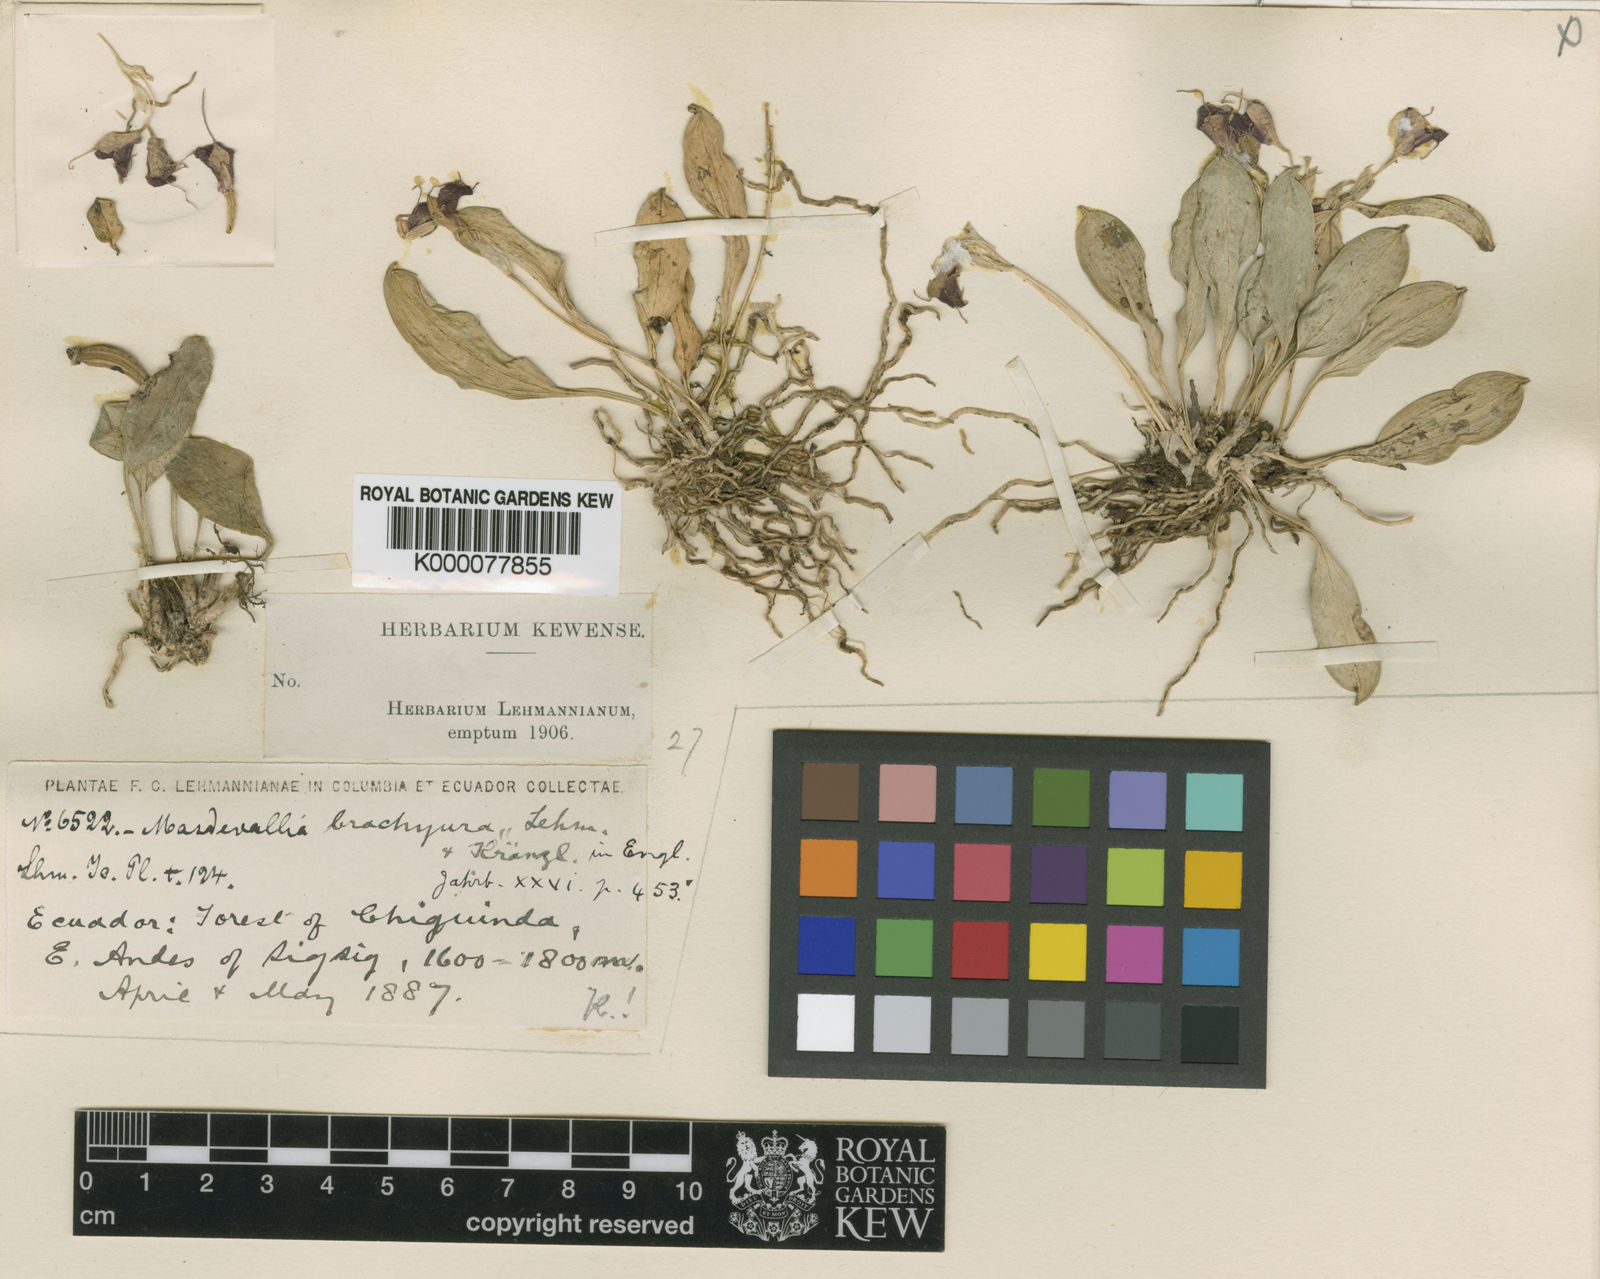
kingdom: Plantae
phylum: Tracheophyta
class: Liliopsida
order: Asparagales
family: Orchidaceae
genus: Masdevallia
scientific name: Masdevallia brachyura
